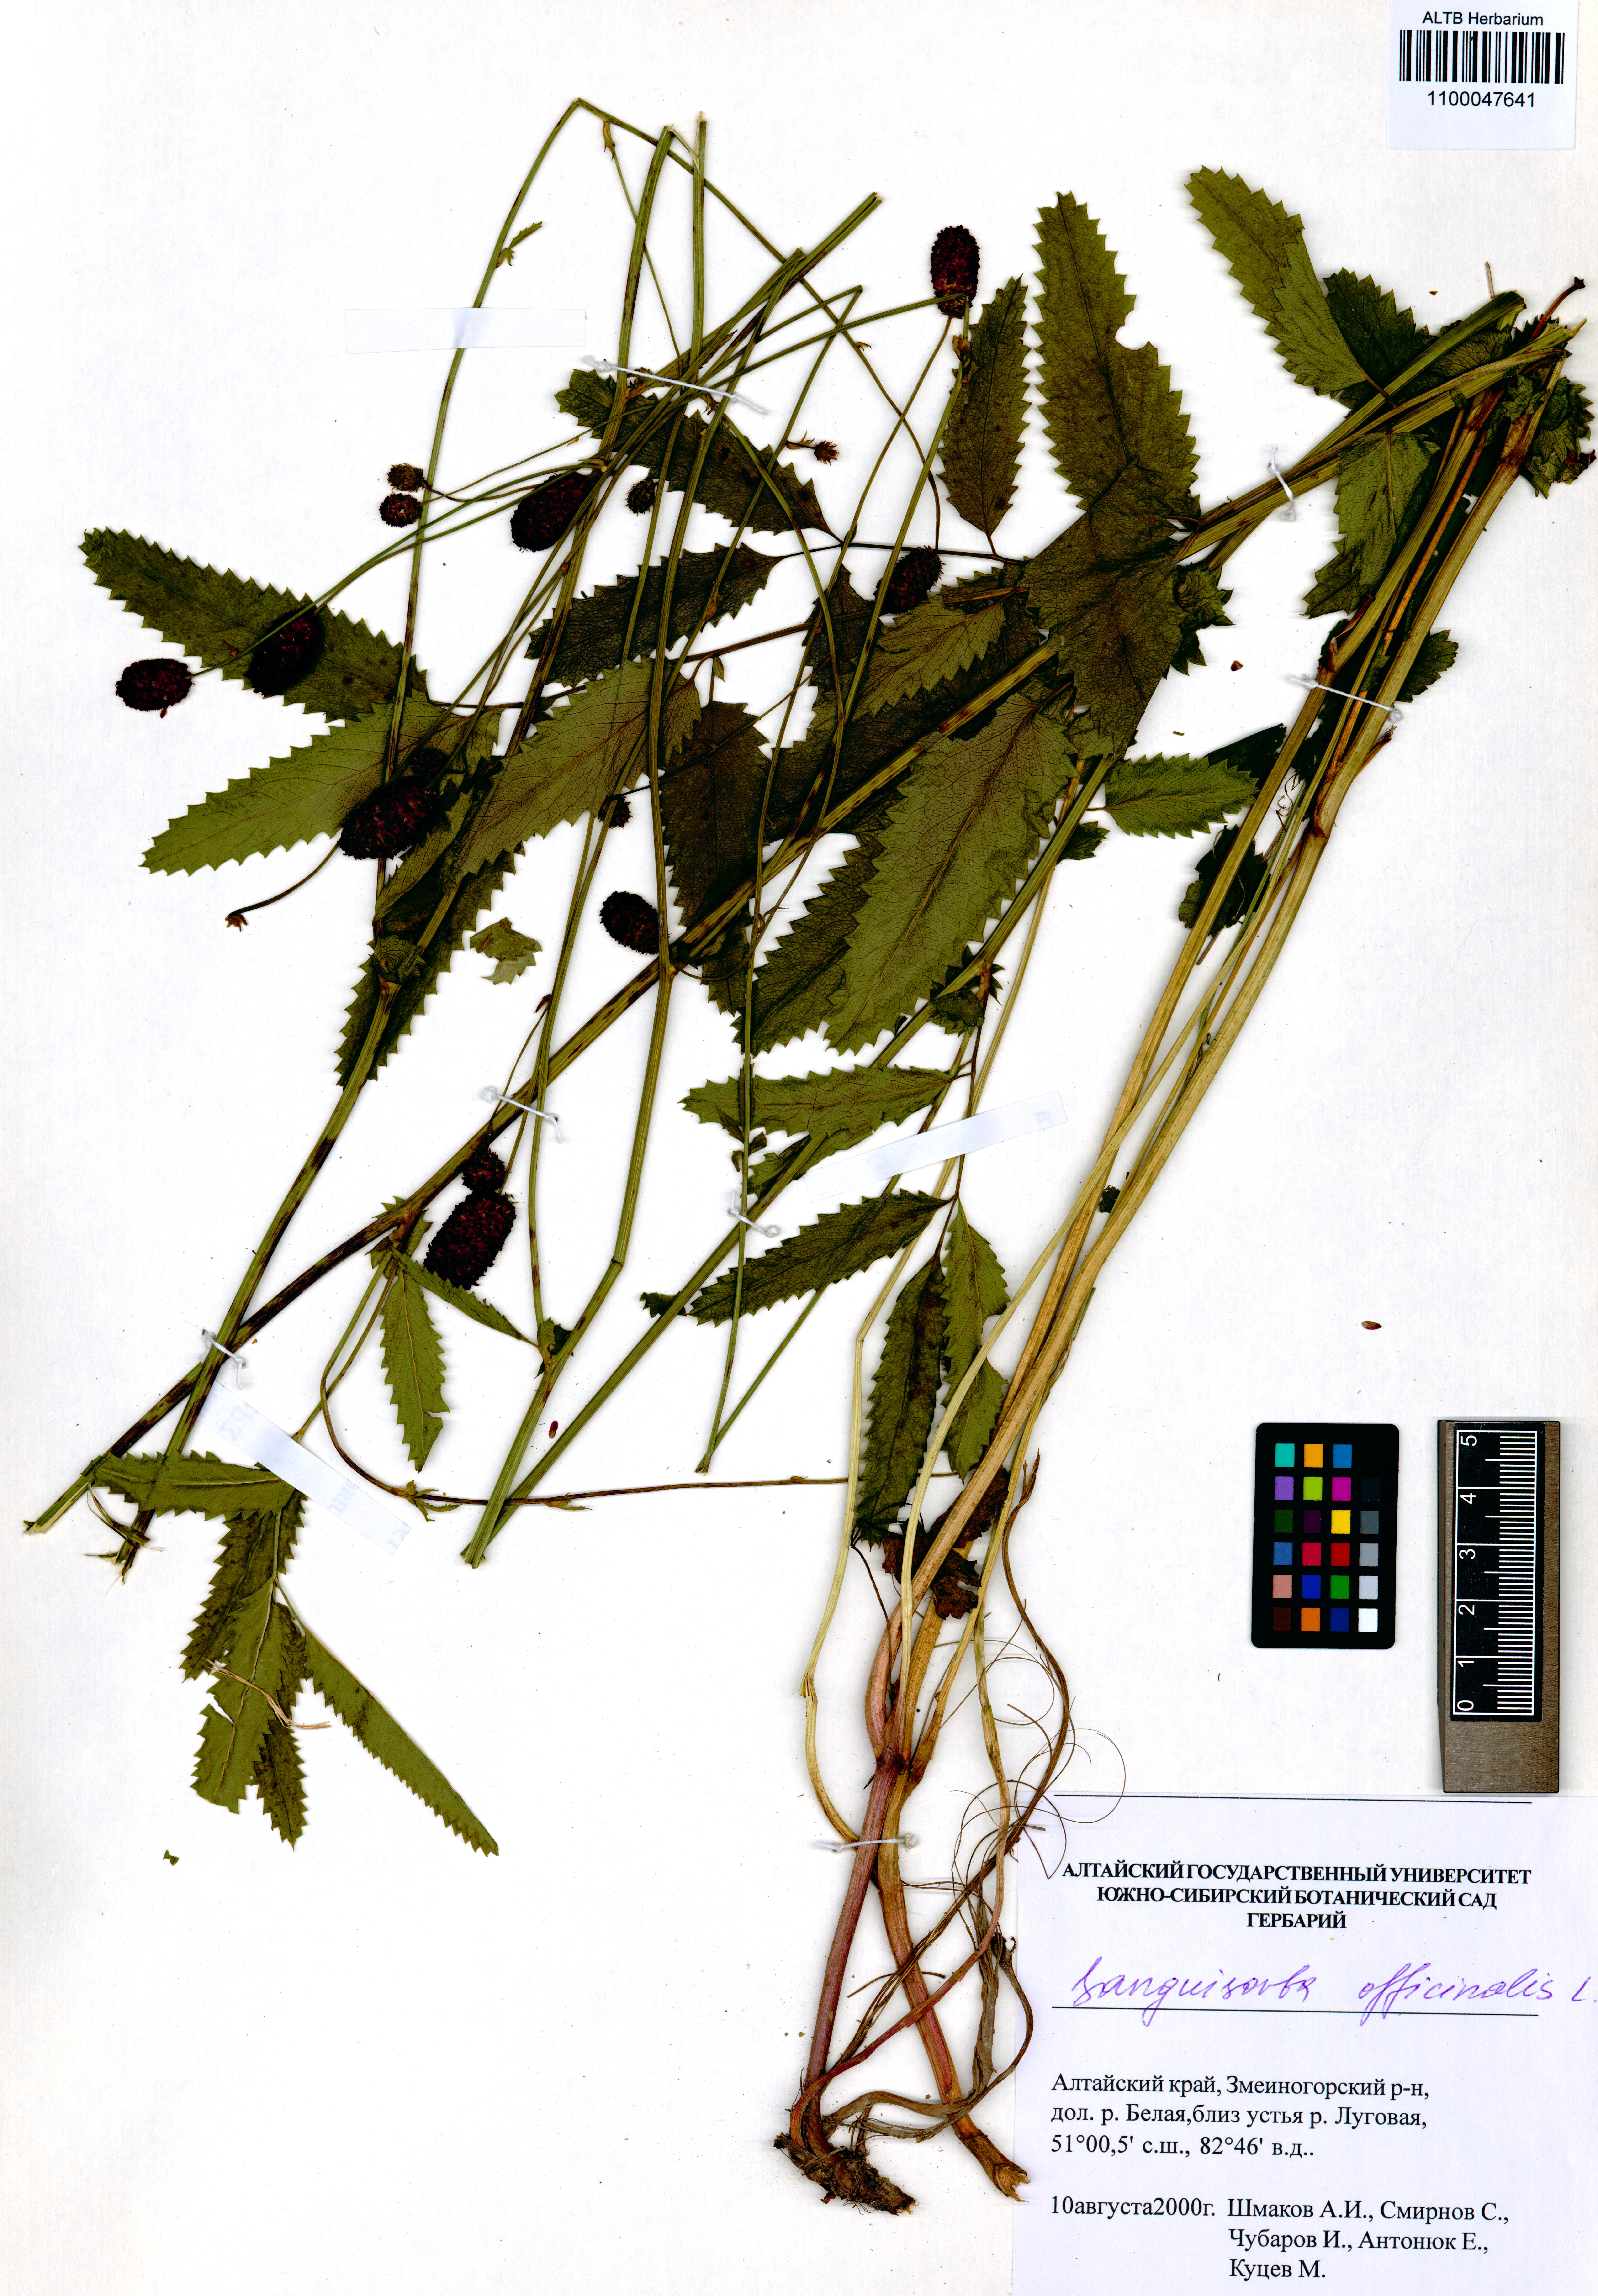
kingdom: Plantae
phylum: Tracheophyta
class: Magnoliopsida
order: Rosales
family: Rosaceae
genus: Sanguisorba
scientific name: Sanguisorba officinalis
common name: Great burnet
